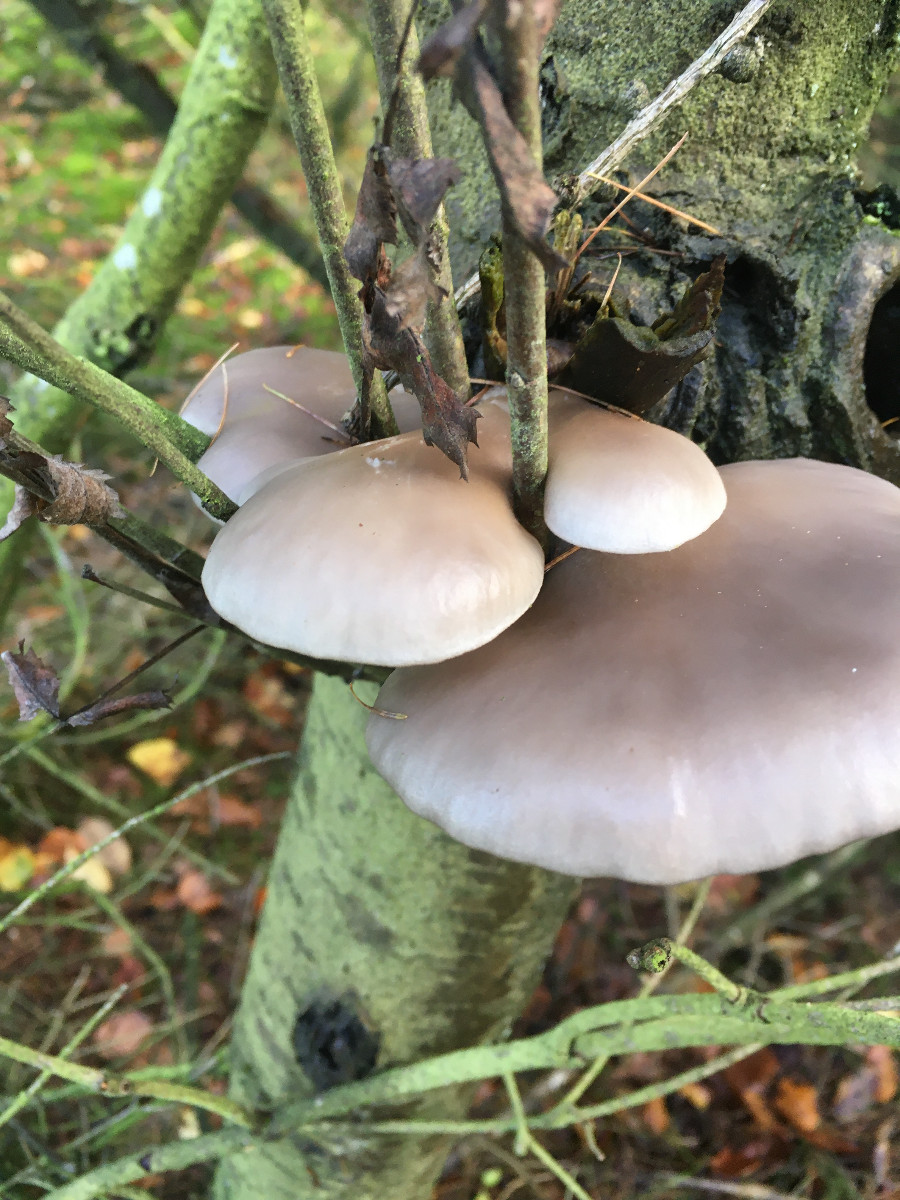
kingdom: Fungi
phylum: Basidiomycota
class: Agaricomycetes
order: Agaricales
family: Pleurotaceae
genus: Pleurotus
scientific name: Pleurotus ostreatus
